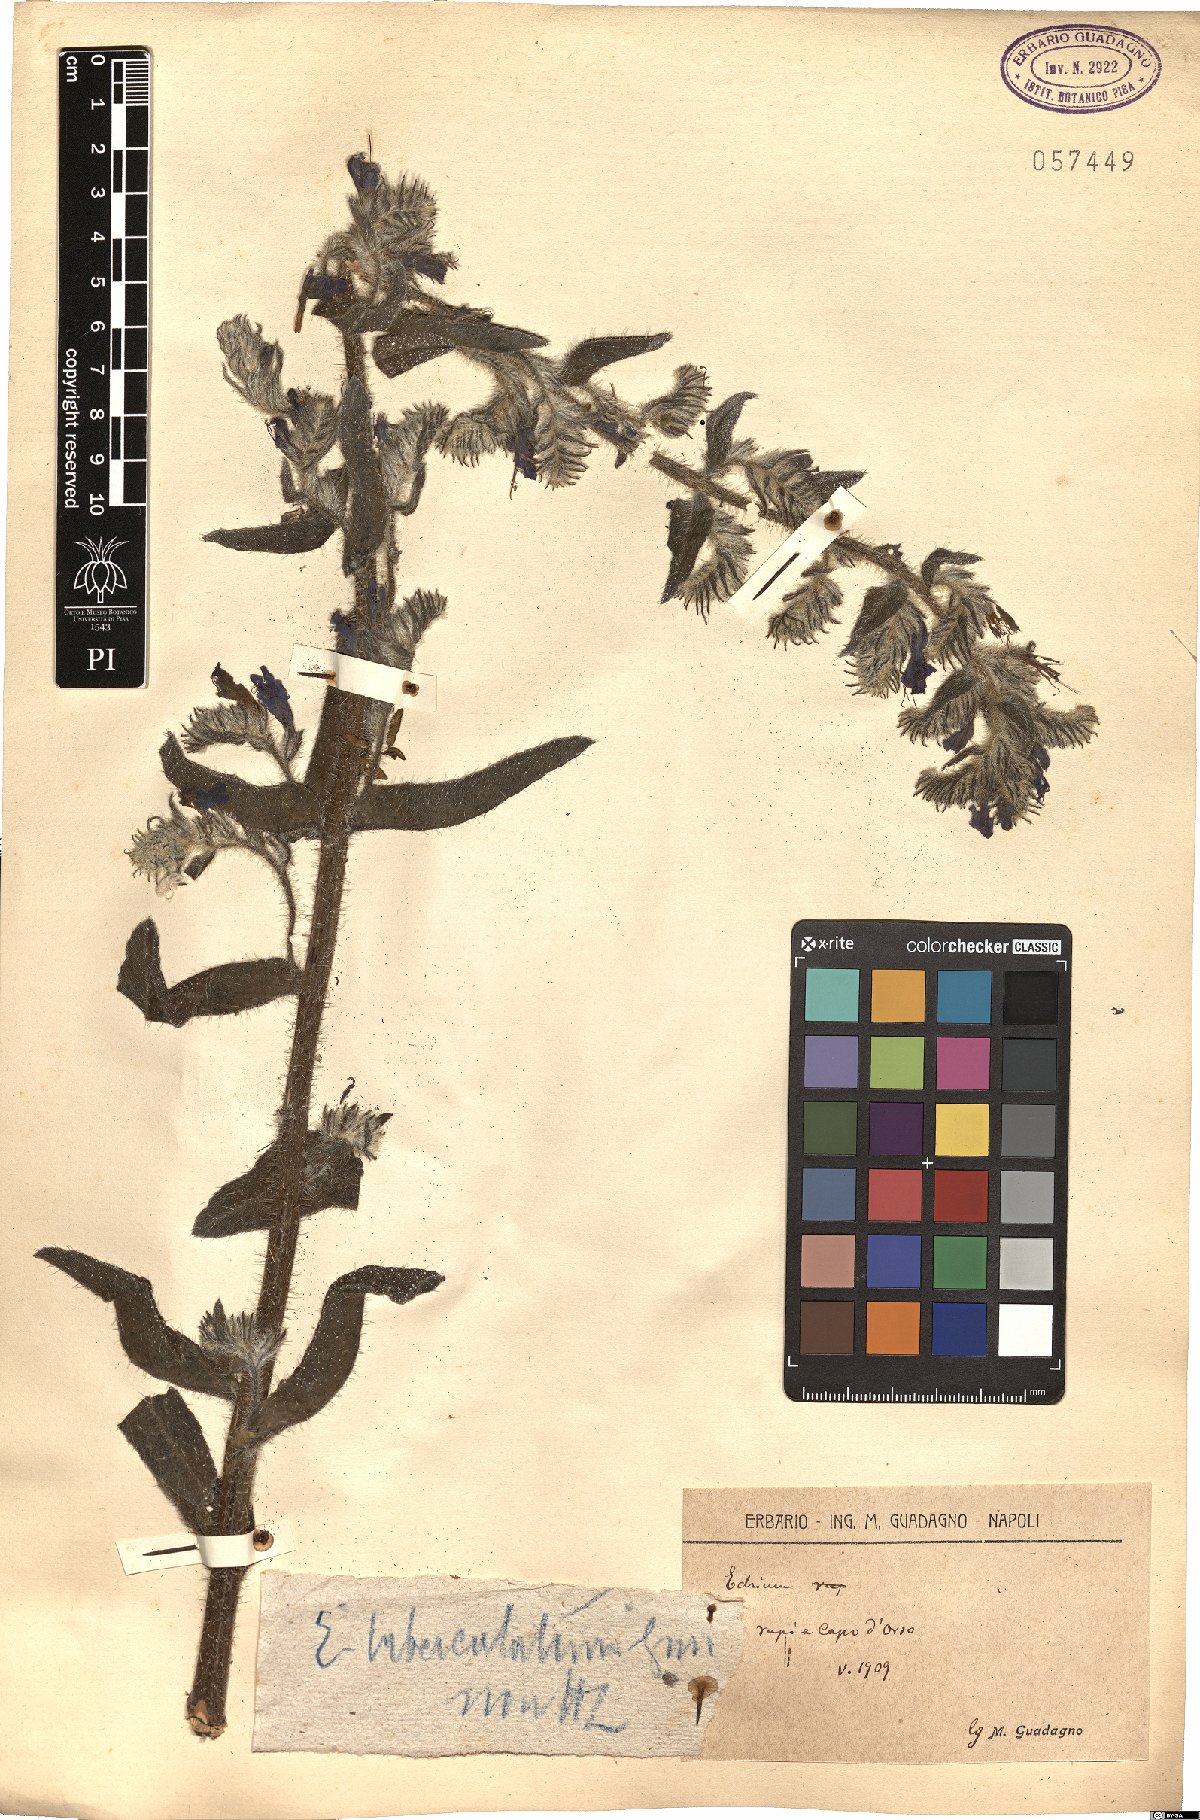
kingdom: Plantae
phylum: Tracheophyta
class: Magnoliopsida
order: Boraginales
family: Boraginaceae
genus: Echium
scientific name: Echium tuberculatum
